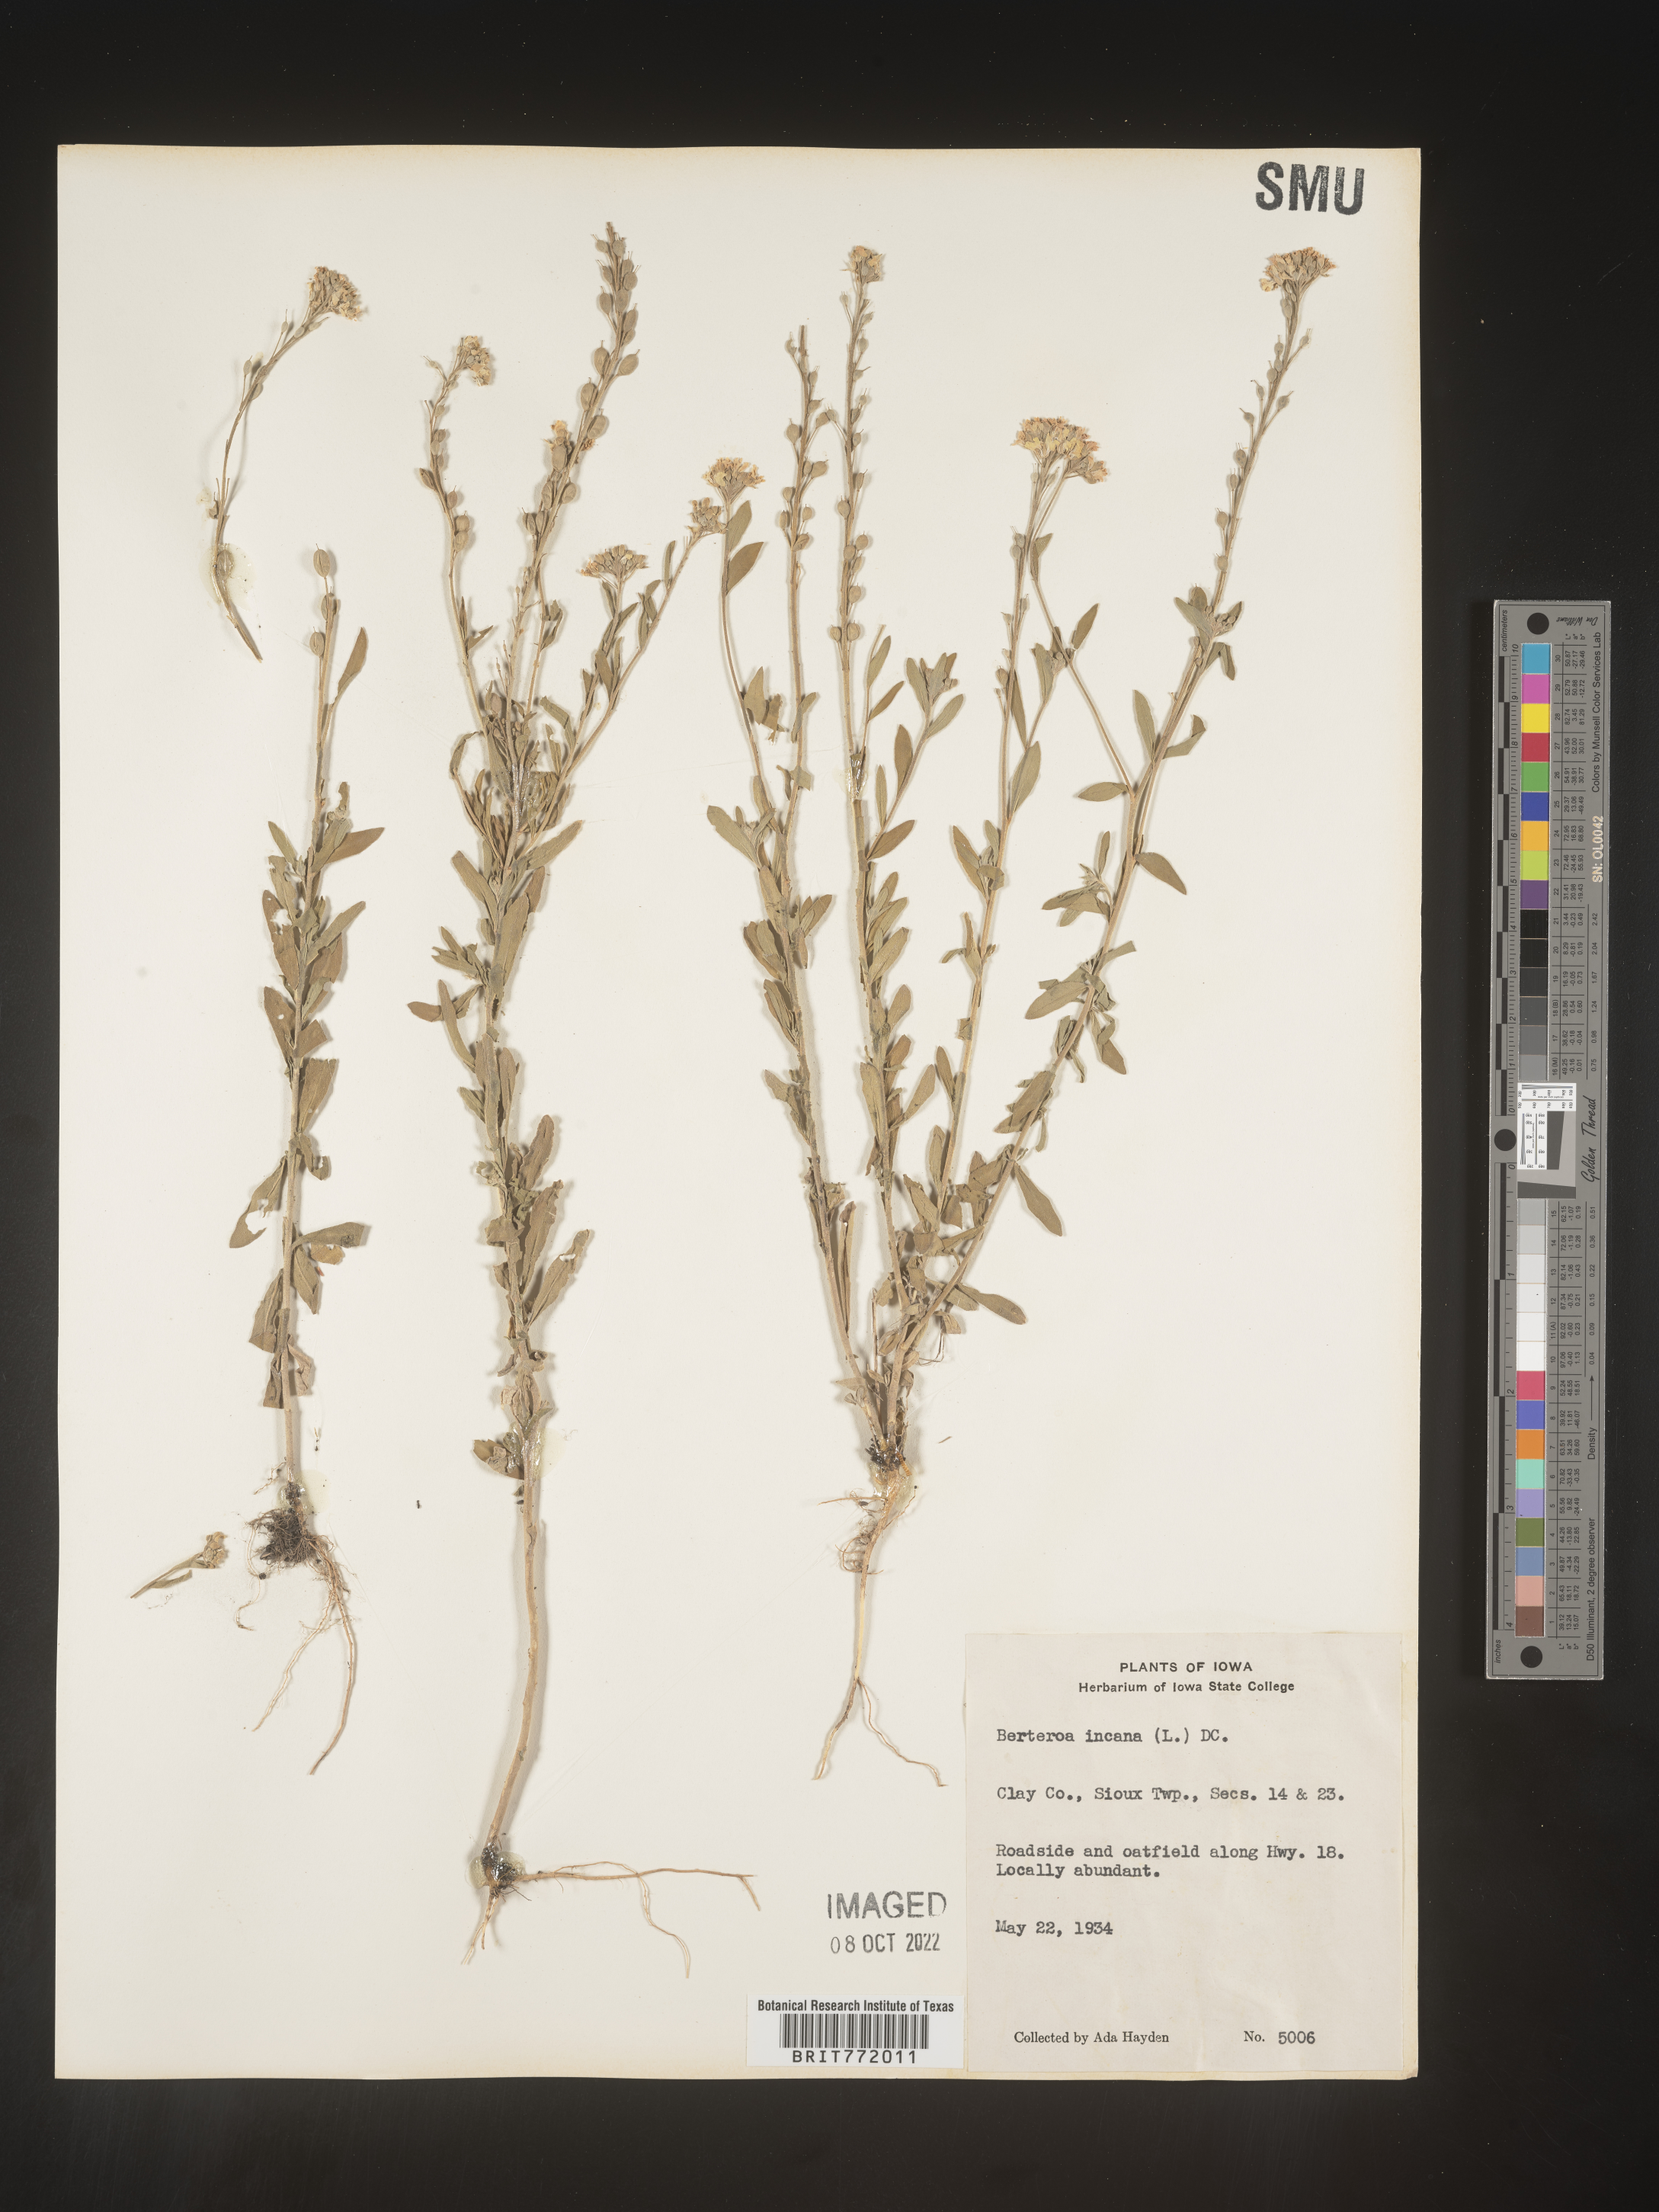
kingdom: Plantae
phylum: Tracheophyta
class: Magnoliopsida
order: Brassicales
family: Brassicaceae
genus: Berteroa
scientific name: Berteroa incana
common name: Hoary alison
